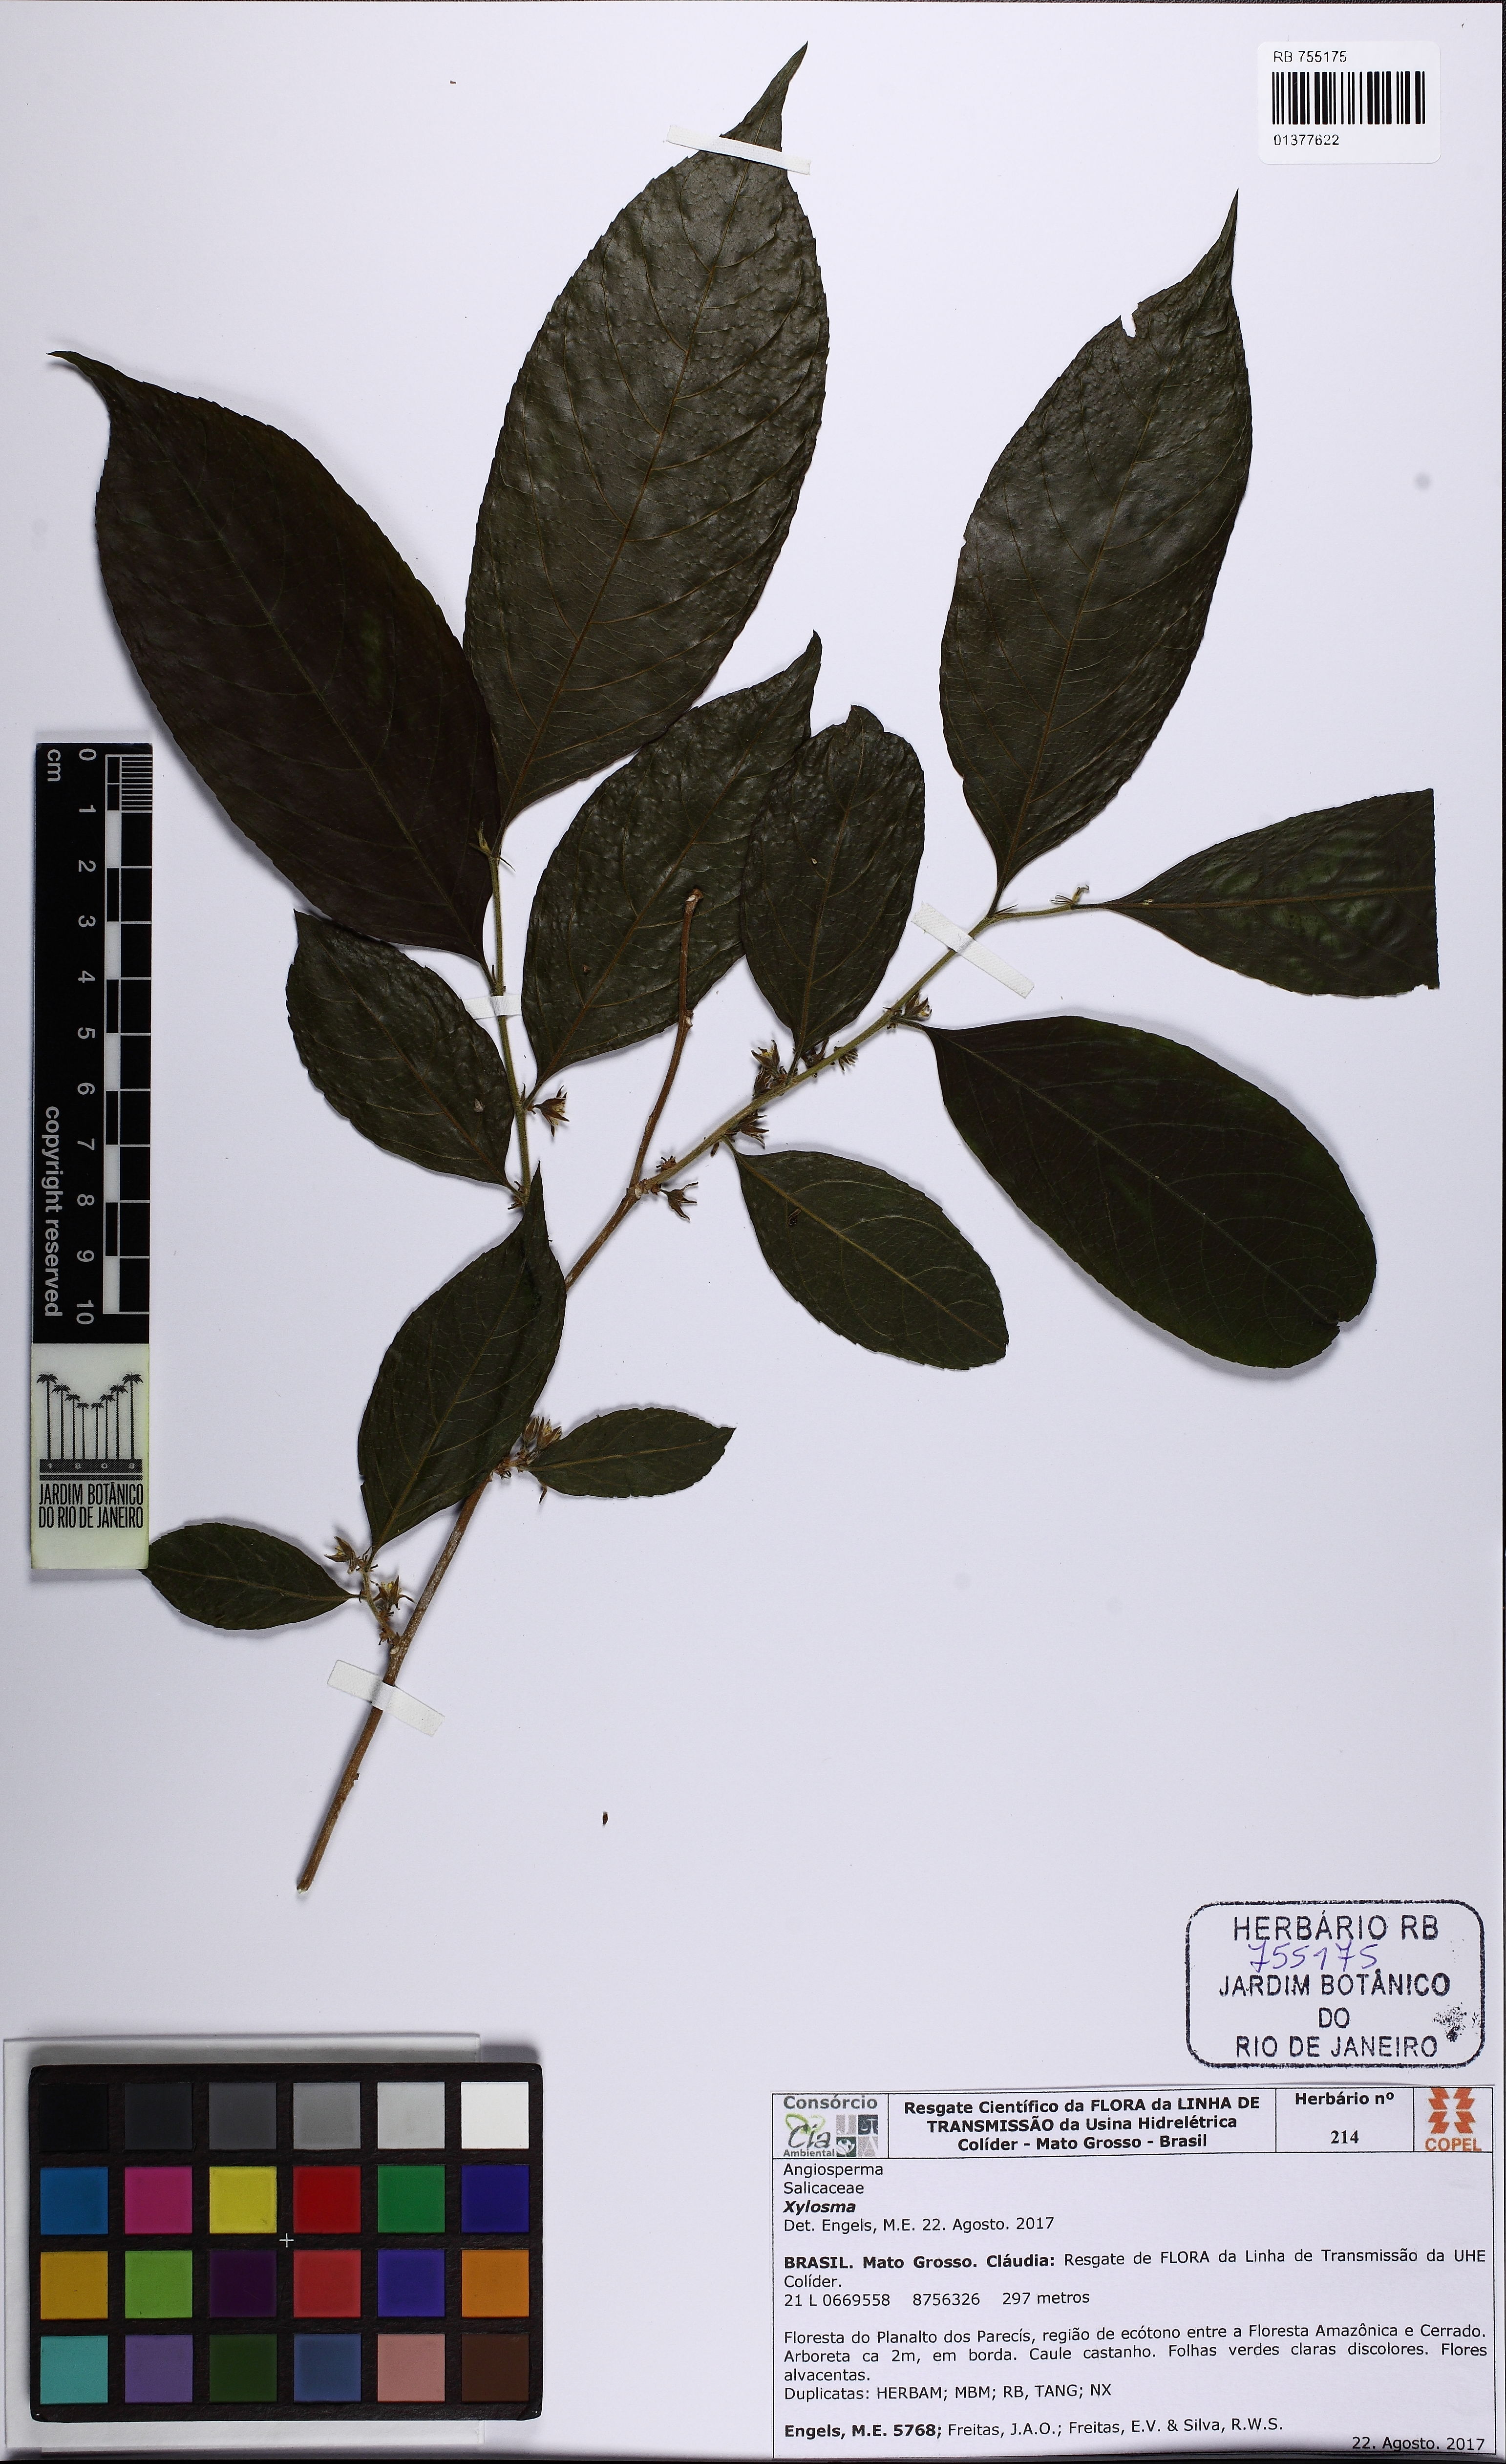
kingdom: Plantae
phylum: Tracheophyta
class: Magnoliopsida
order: Malpighiales
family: Salicaceae
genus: Xylosma
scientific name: Xylosma
